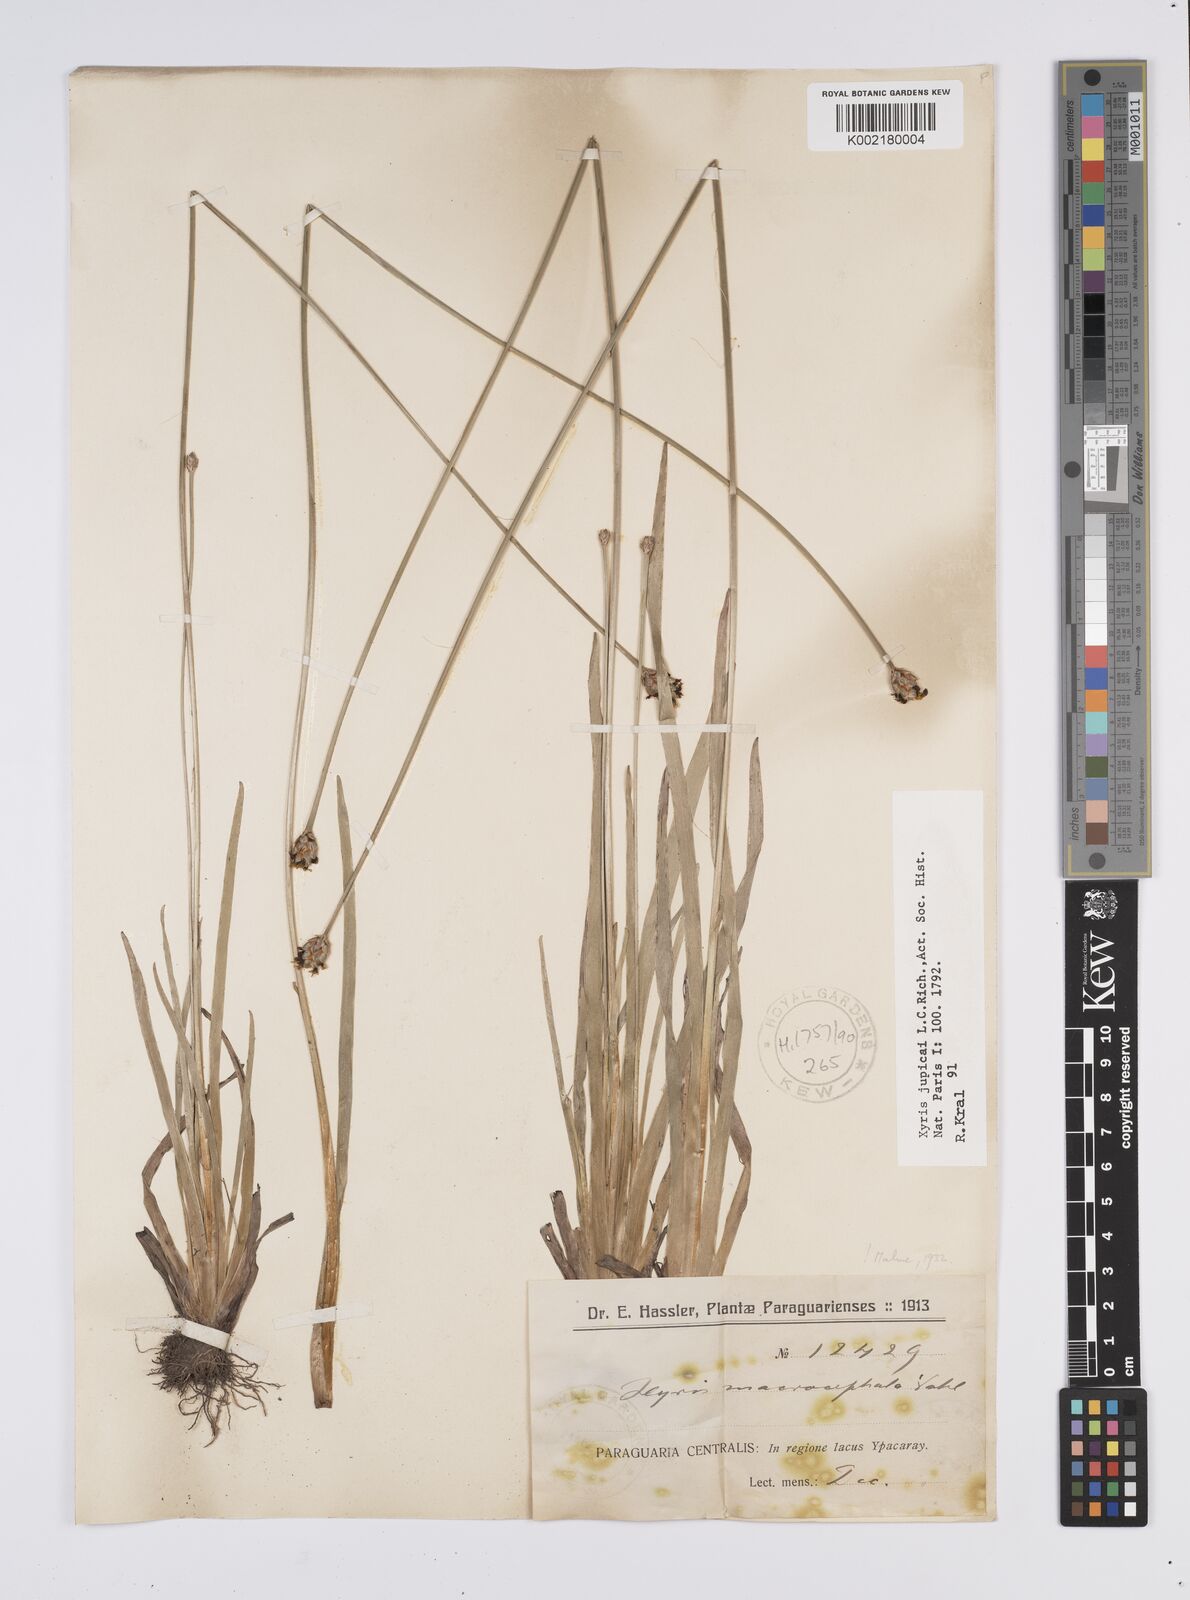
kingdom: Plantae
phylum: Tracheophyta
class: Liliopsida
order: Poales
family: Xyridaceae
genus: Xyris
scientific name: Xyris jupicai
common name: Richard's yelloweyed grass
